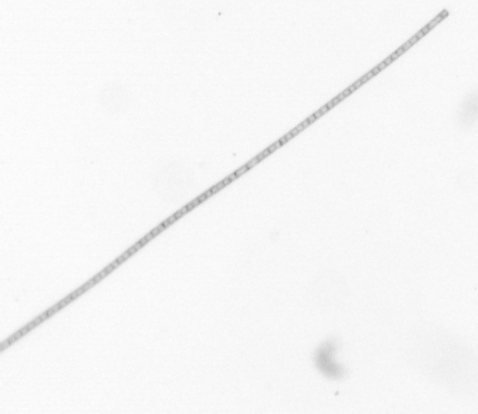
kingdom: Chromista
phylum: Ochrophyta
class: Bacillariophyceae
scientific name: Bacillariophyceae
